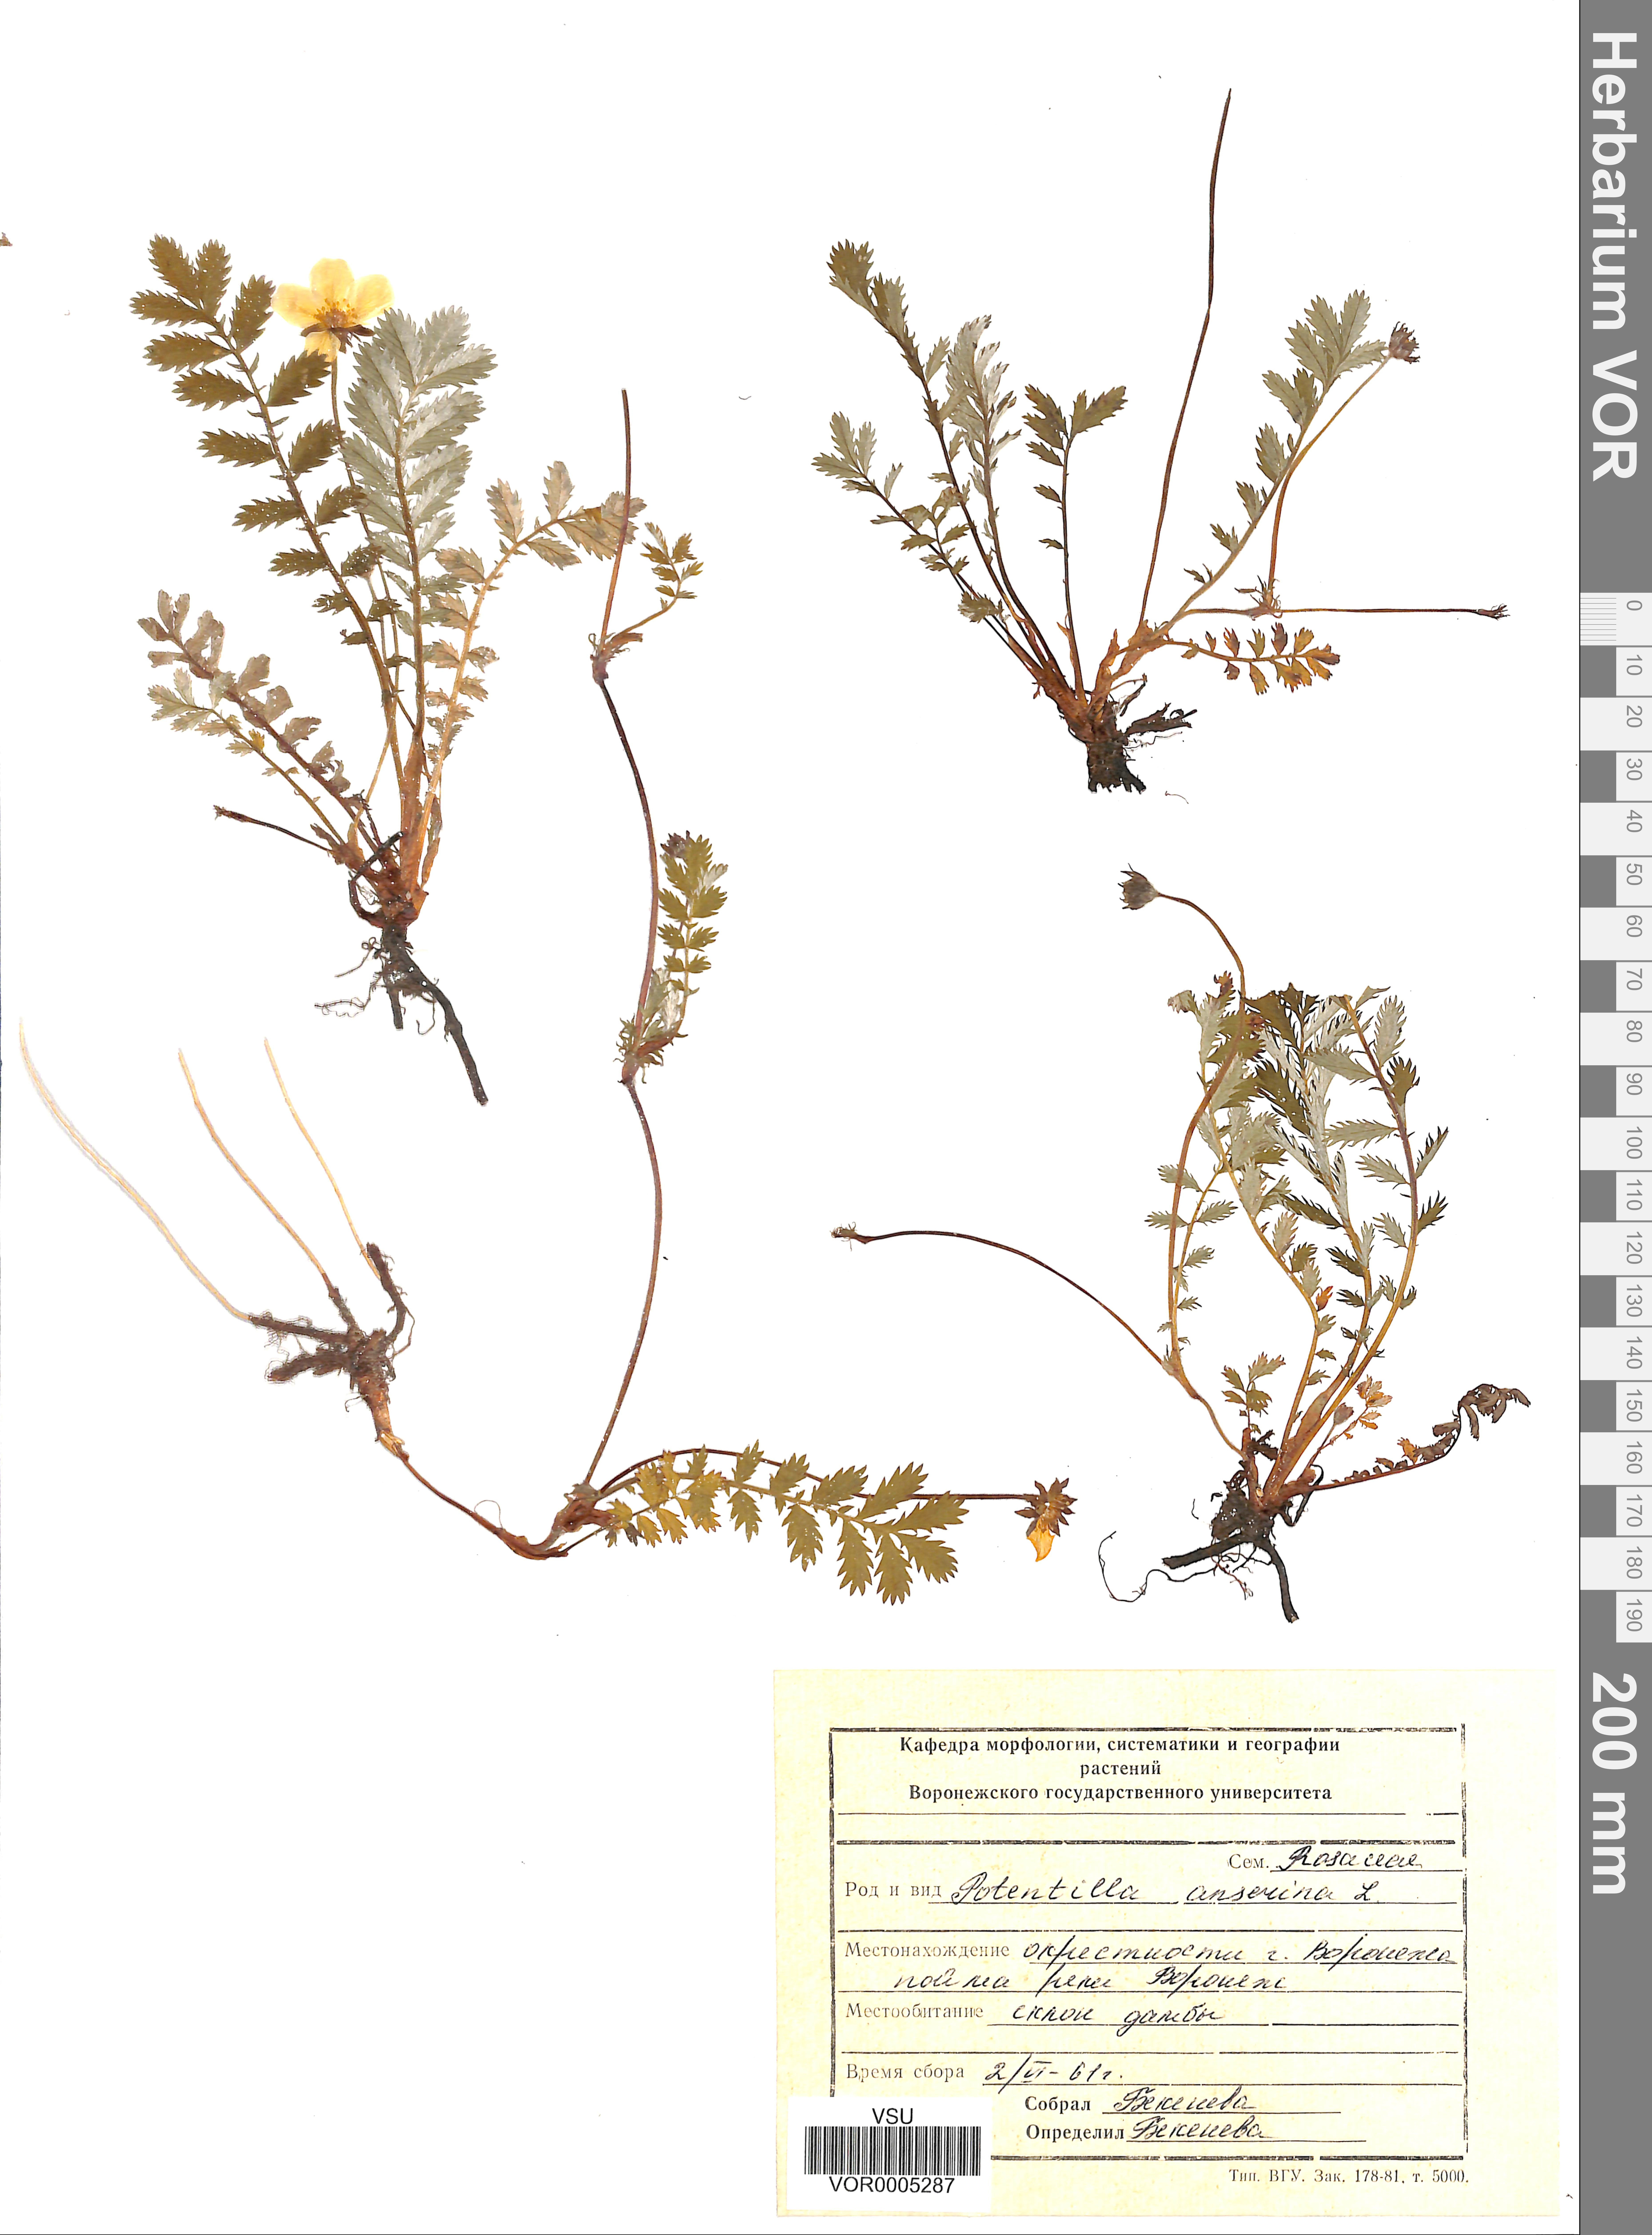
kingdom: Plantae
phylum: Tracheophyta
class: Magnoliopsida
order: Rosales
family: Rosaceae
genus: Argentina
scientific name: Argentina anserina
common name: Common silverweed
